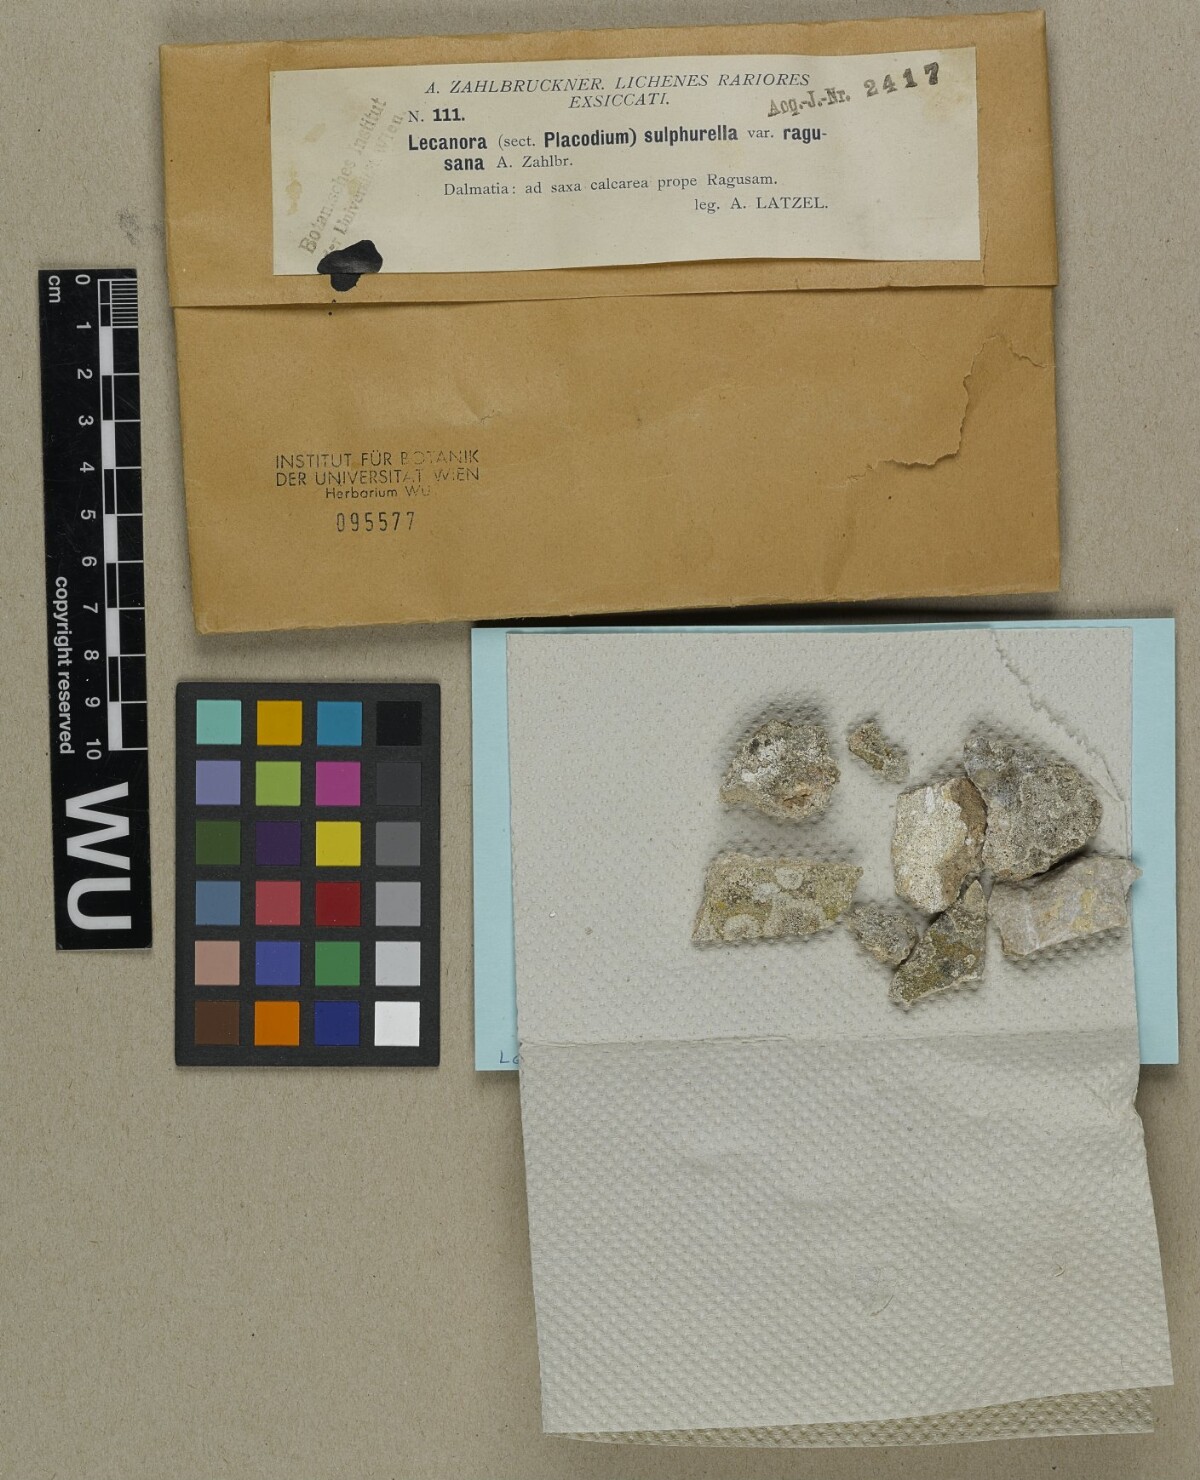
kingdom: Fungi
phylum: Ascomycota
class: Lecanoromycetes
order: Lecanorales
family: Lecanoraceae
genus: Lecanora
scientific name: Lecanora sulphurella
